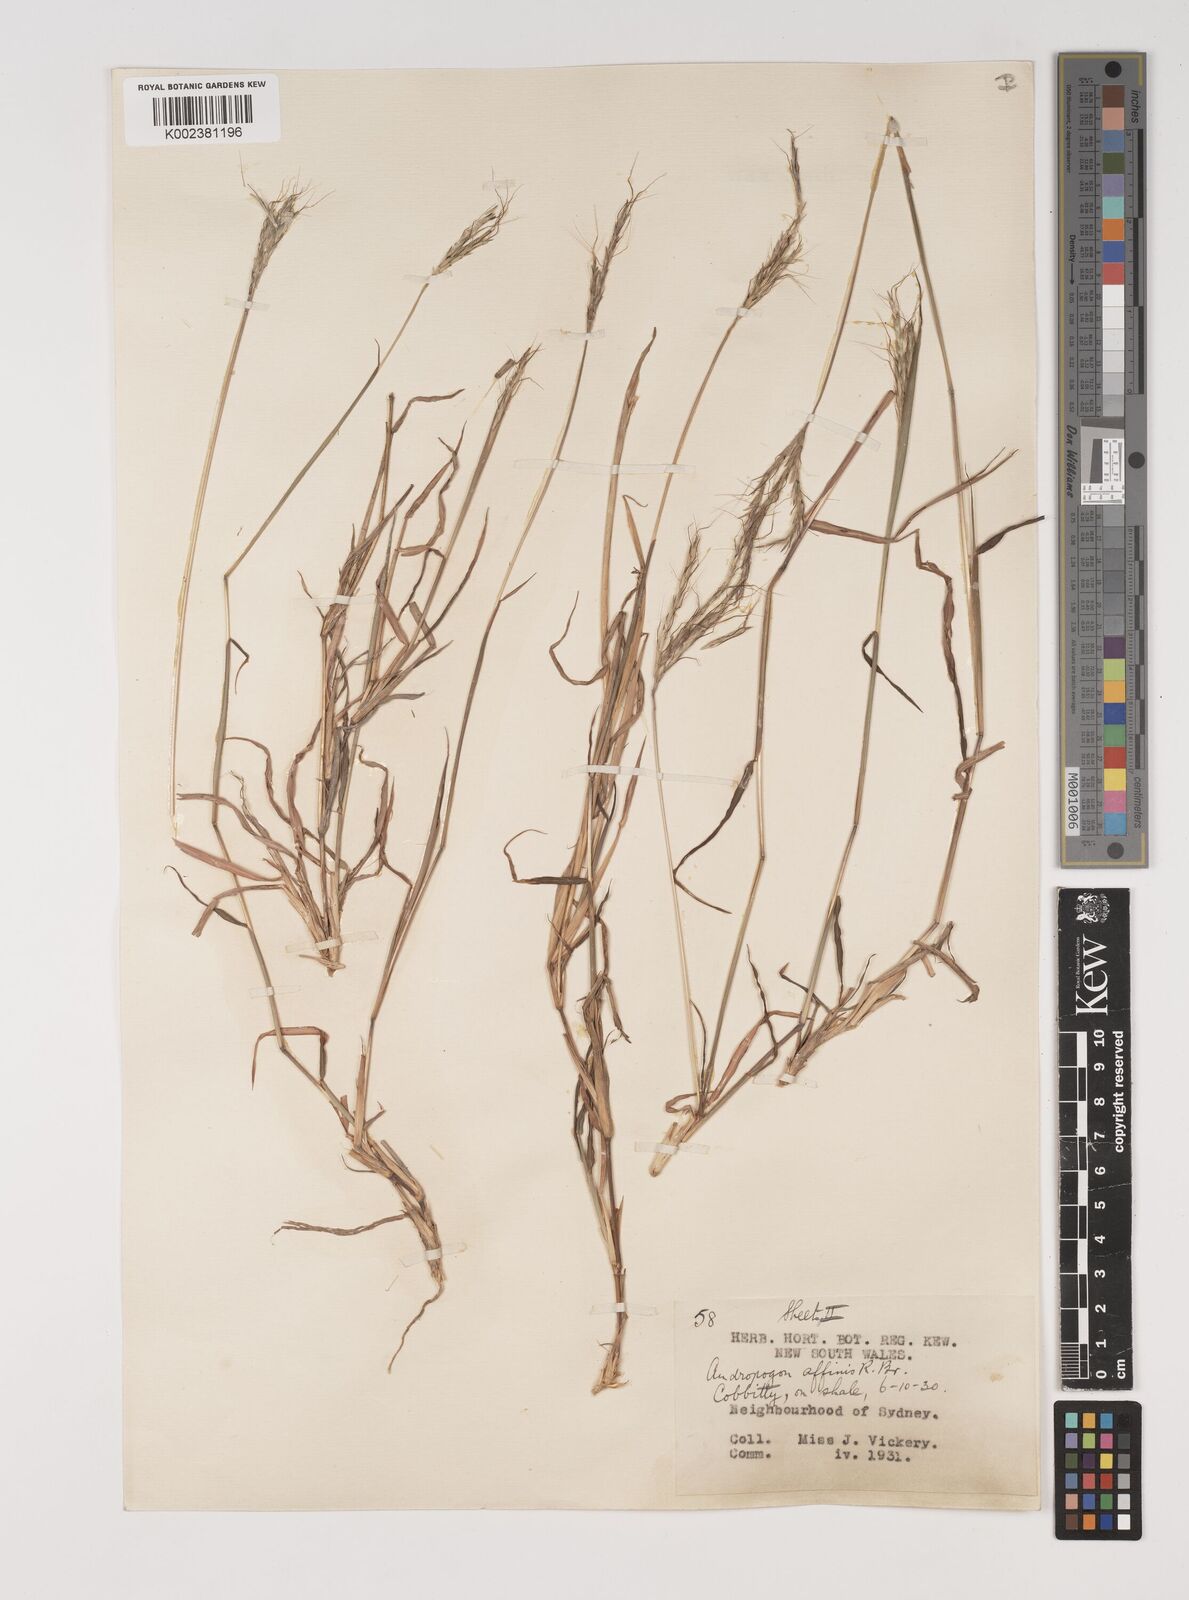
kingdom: Plantae
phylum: Tracheophyta
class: Liliopsida
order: Poales
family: Poaceae
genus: Bothriochloa
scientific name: Bothriochloa macra
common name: Pitted beard grass
